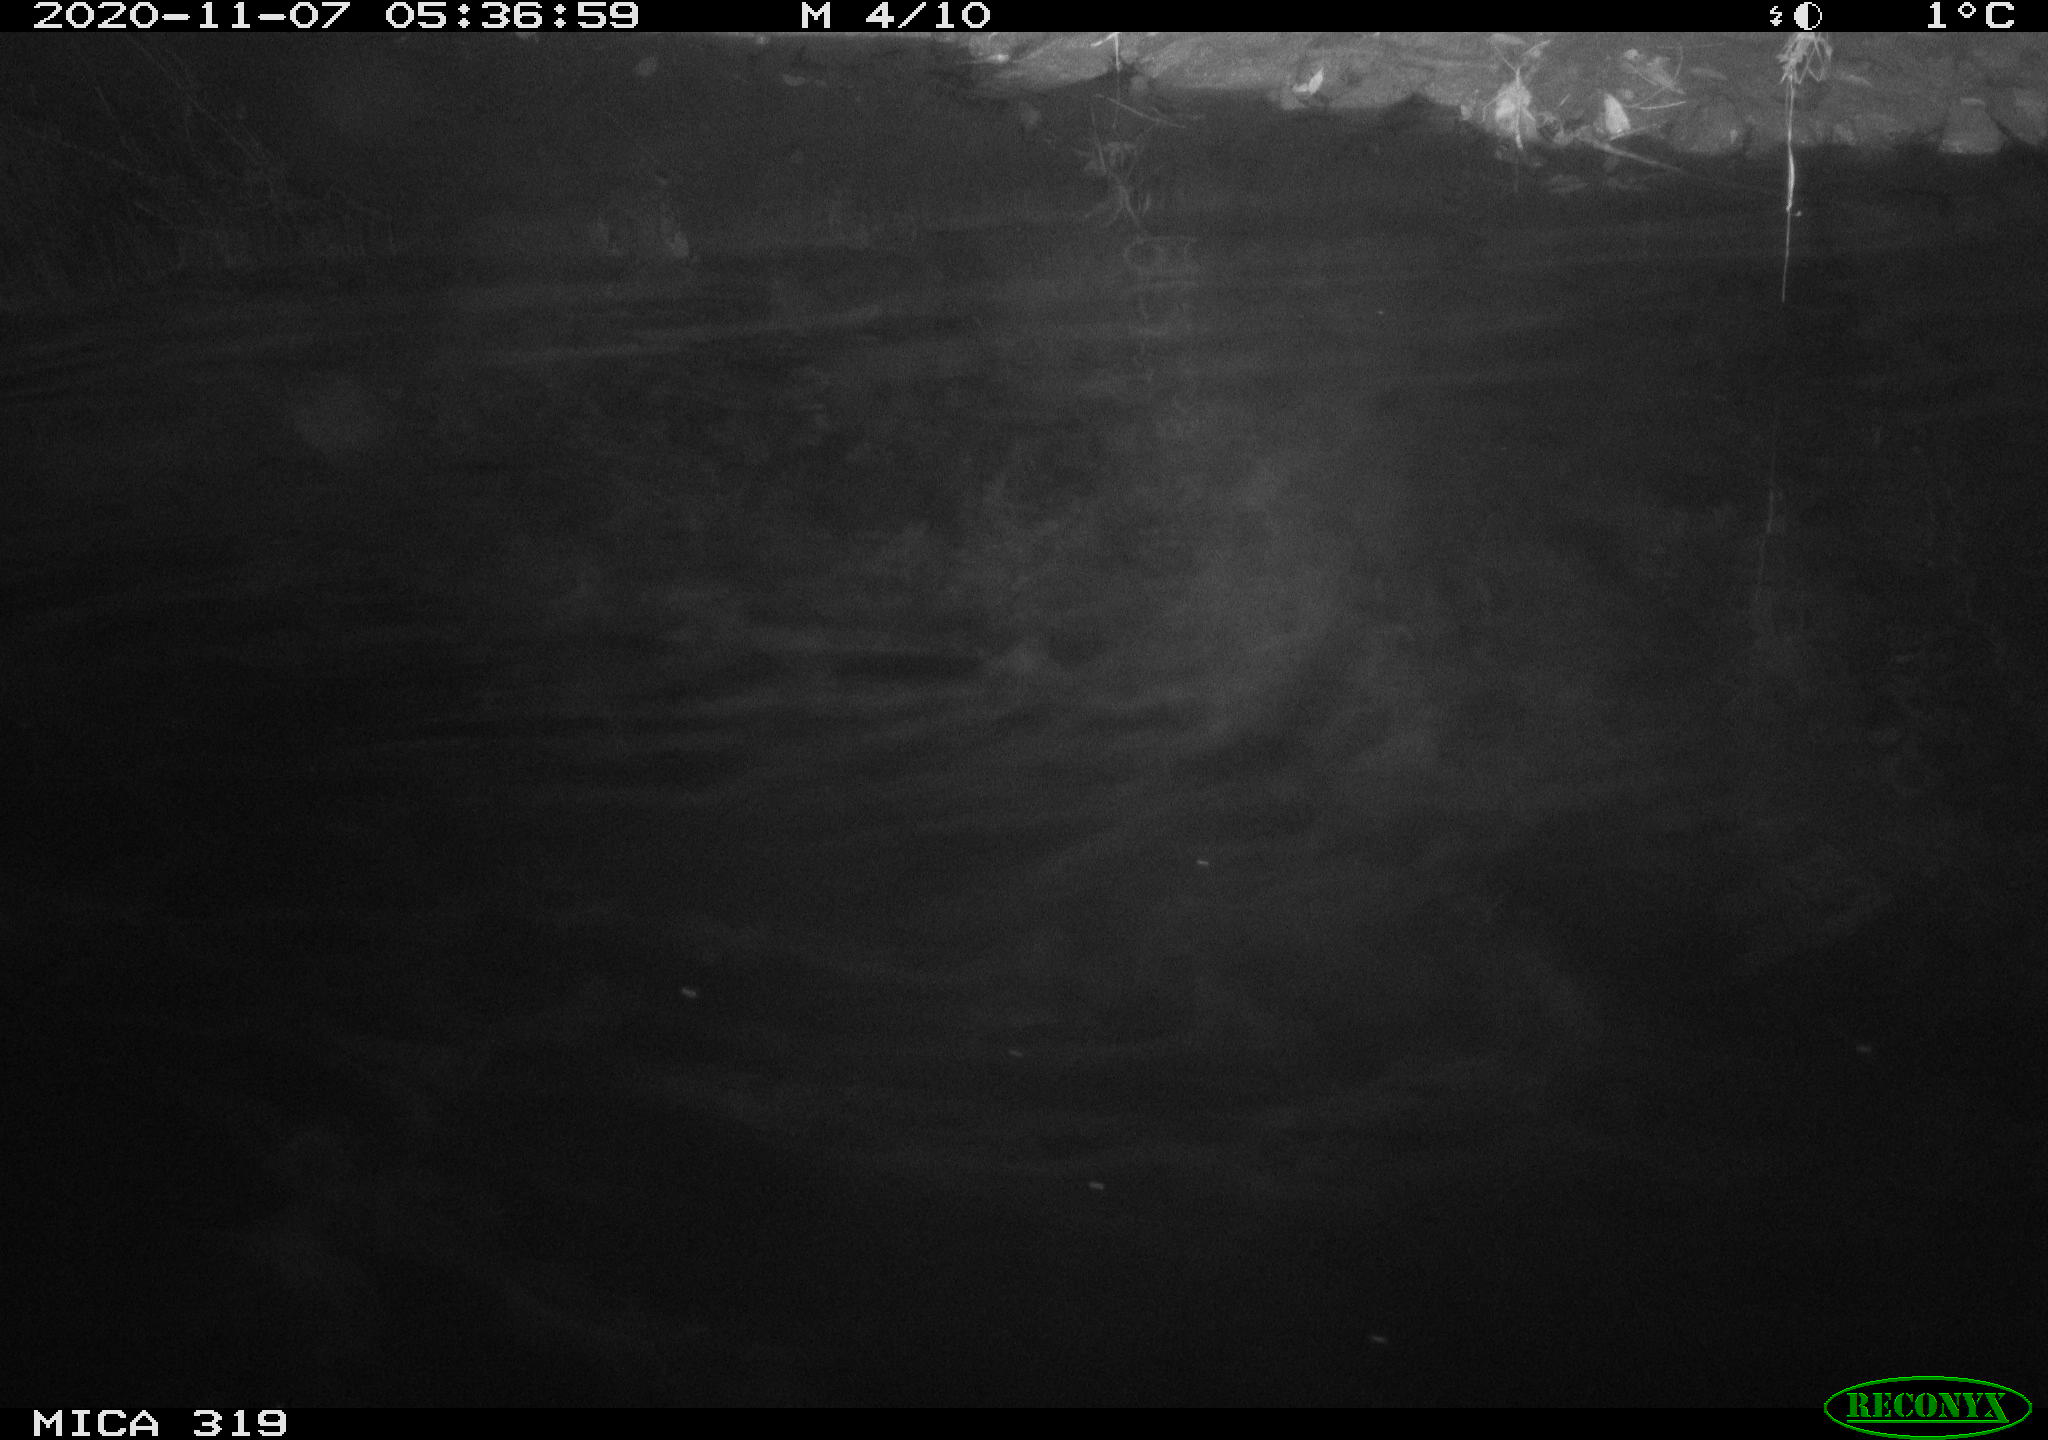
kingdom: Animalia
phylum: Chordata
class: Aves
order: Anseriformes
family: Anatidae
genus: Anas
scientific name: Anas platyrhynchos
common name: Mallard
